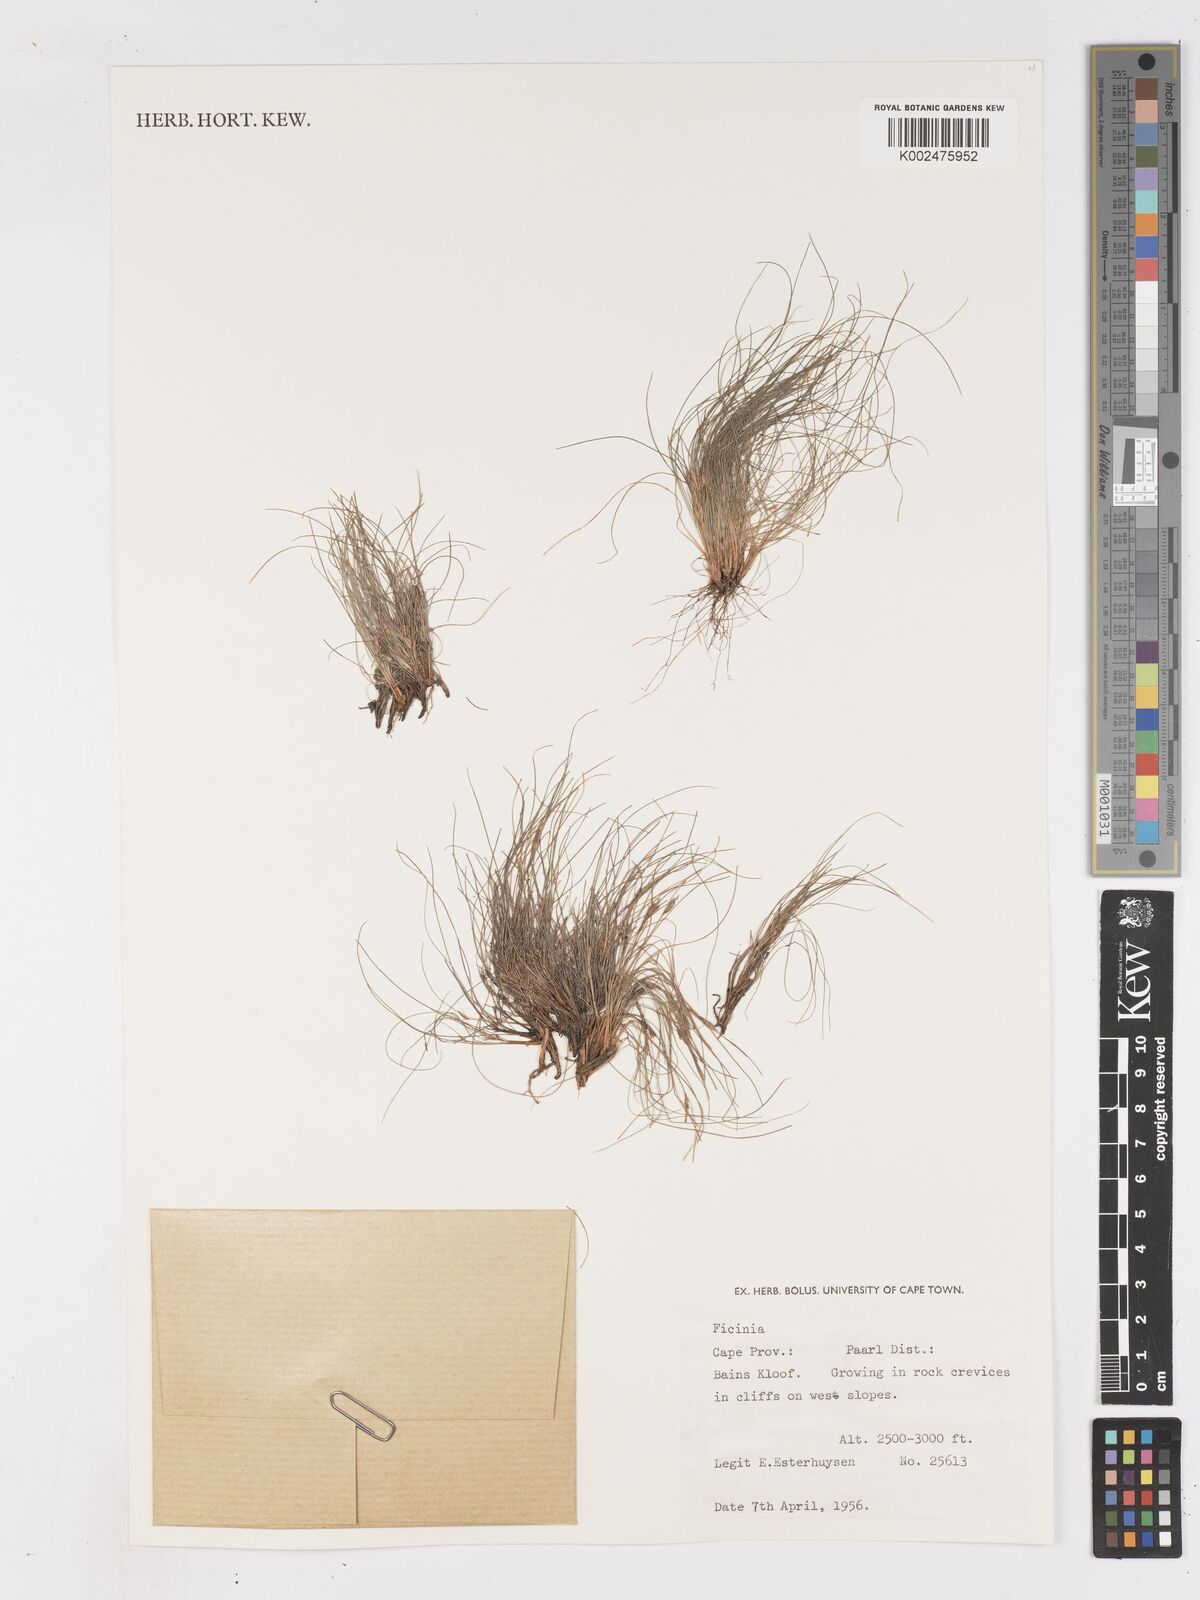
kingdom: Plantae
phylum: Tracheophyta
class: Liliopsida
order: Poales
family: Cyperaceae
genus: Ficinia
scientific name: Ficinia esterhuyseniae
